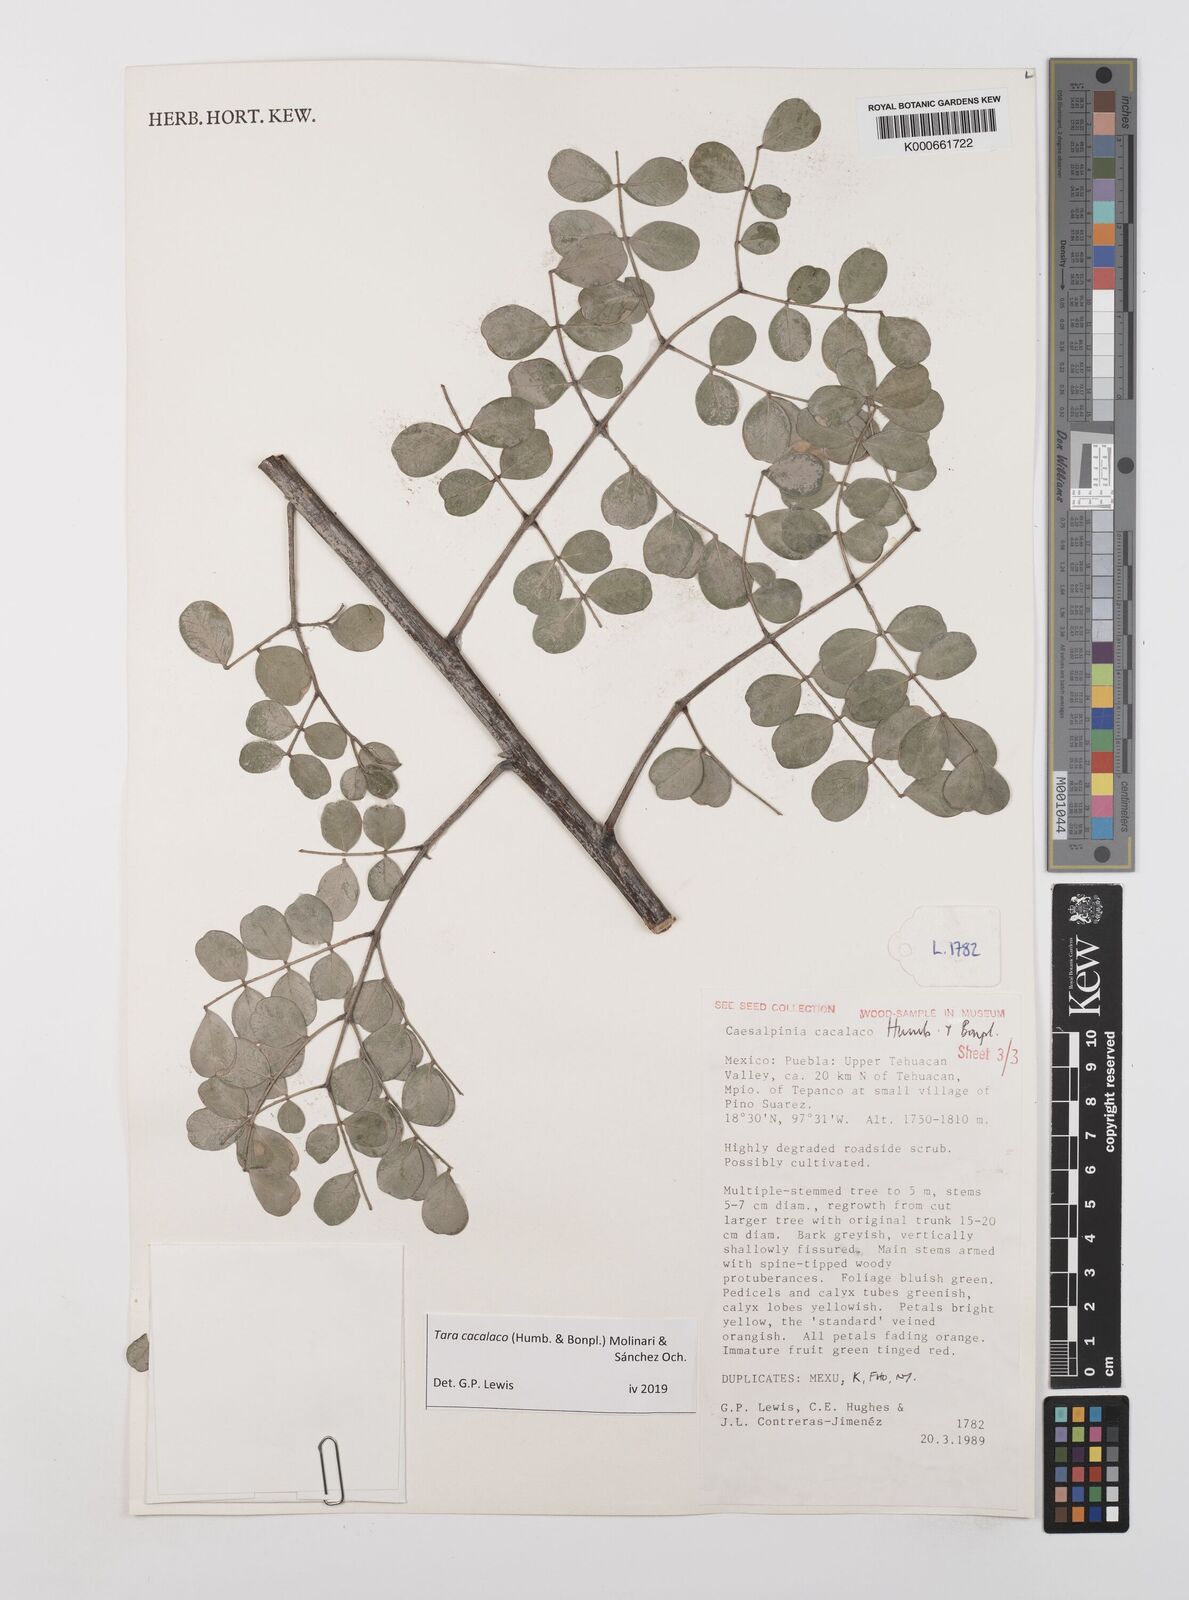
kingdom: Plantae
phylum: Tracheophyta
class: Magnoliopsida
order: Fabales
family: Fabaceae
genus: Tara
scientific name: Tara cacalaco
